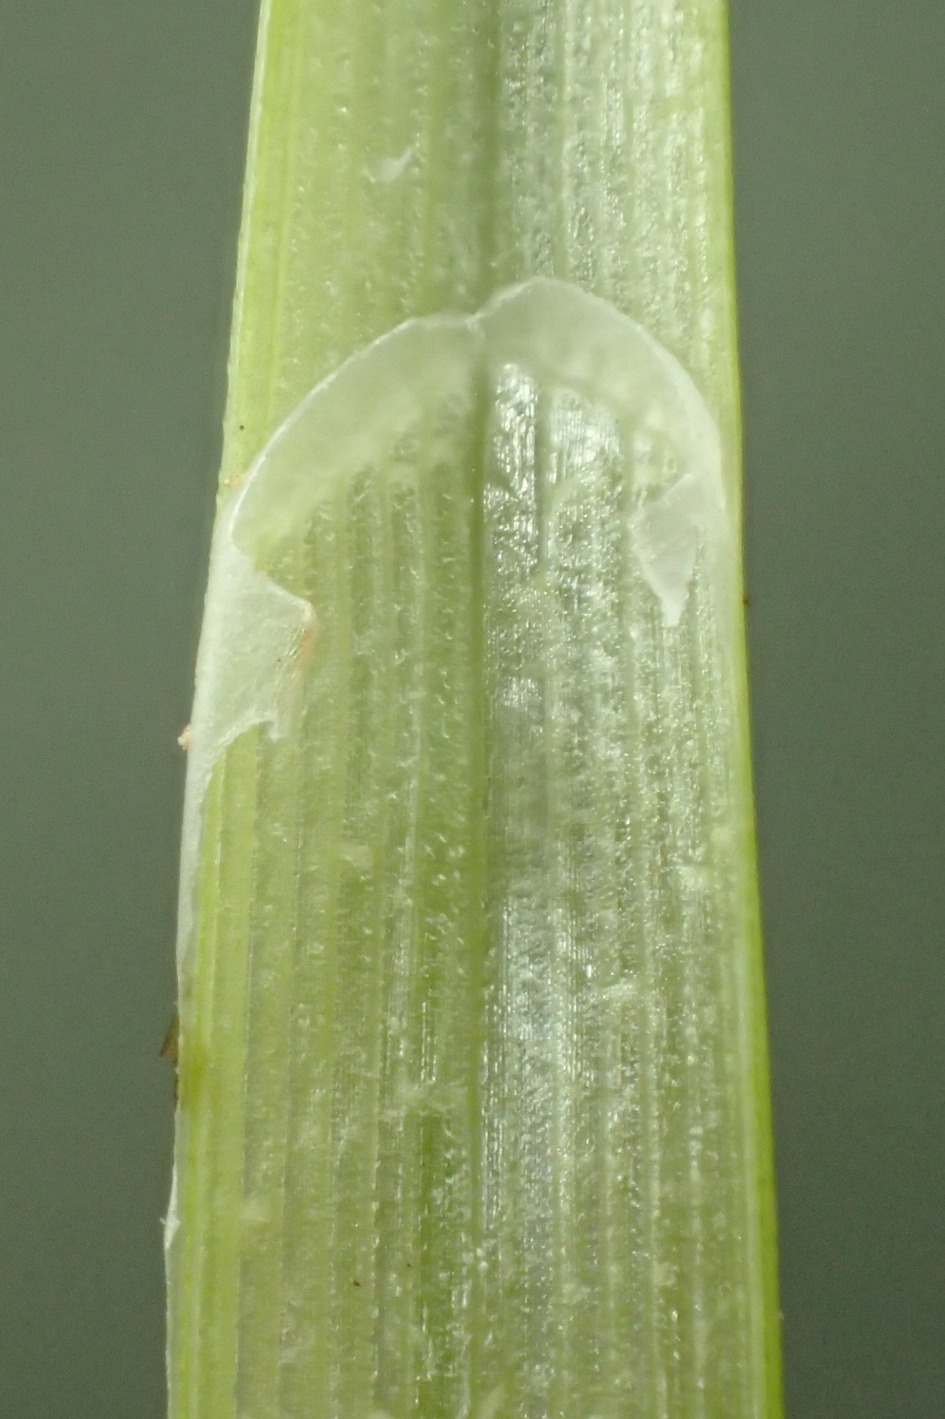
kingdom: Plantae
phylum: Tracheophyta
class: Liliopsida
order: Poales
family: Cyperaceae
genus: Carex
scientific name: Carex nigra
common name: Almindelig star
